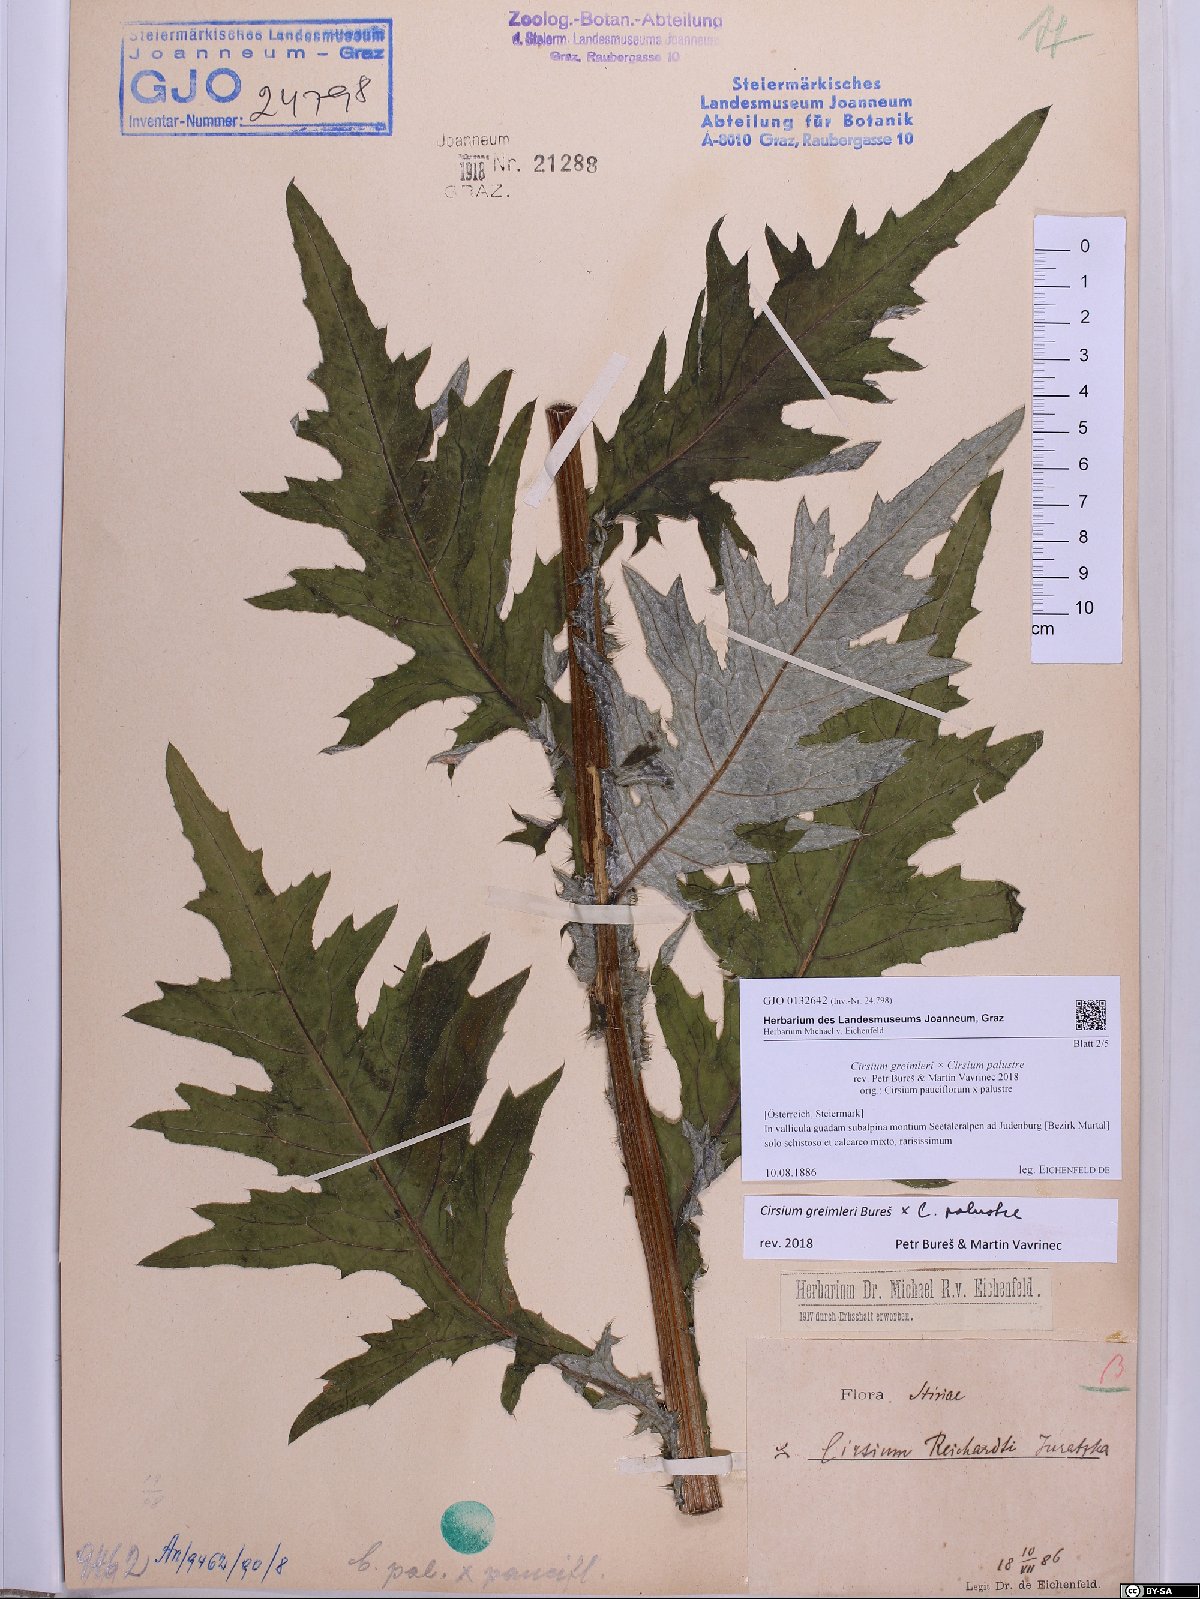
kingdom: Plantae
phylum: Tracheophyta
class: Magnoliopsida
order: Asterales
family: Asteraceae
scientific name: Asteraceae
